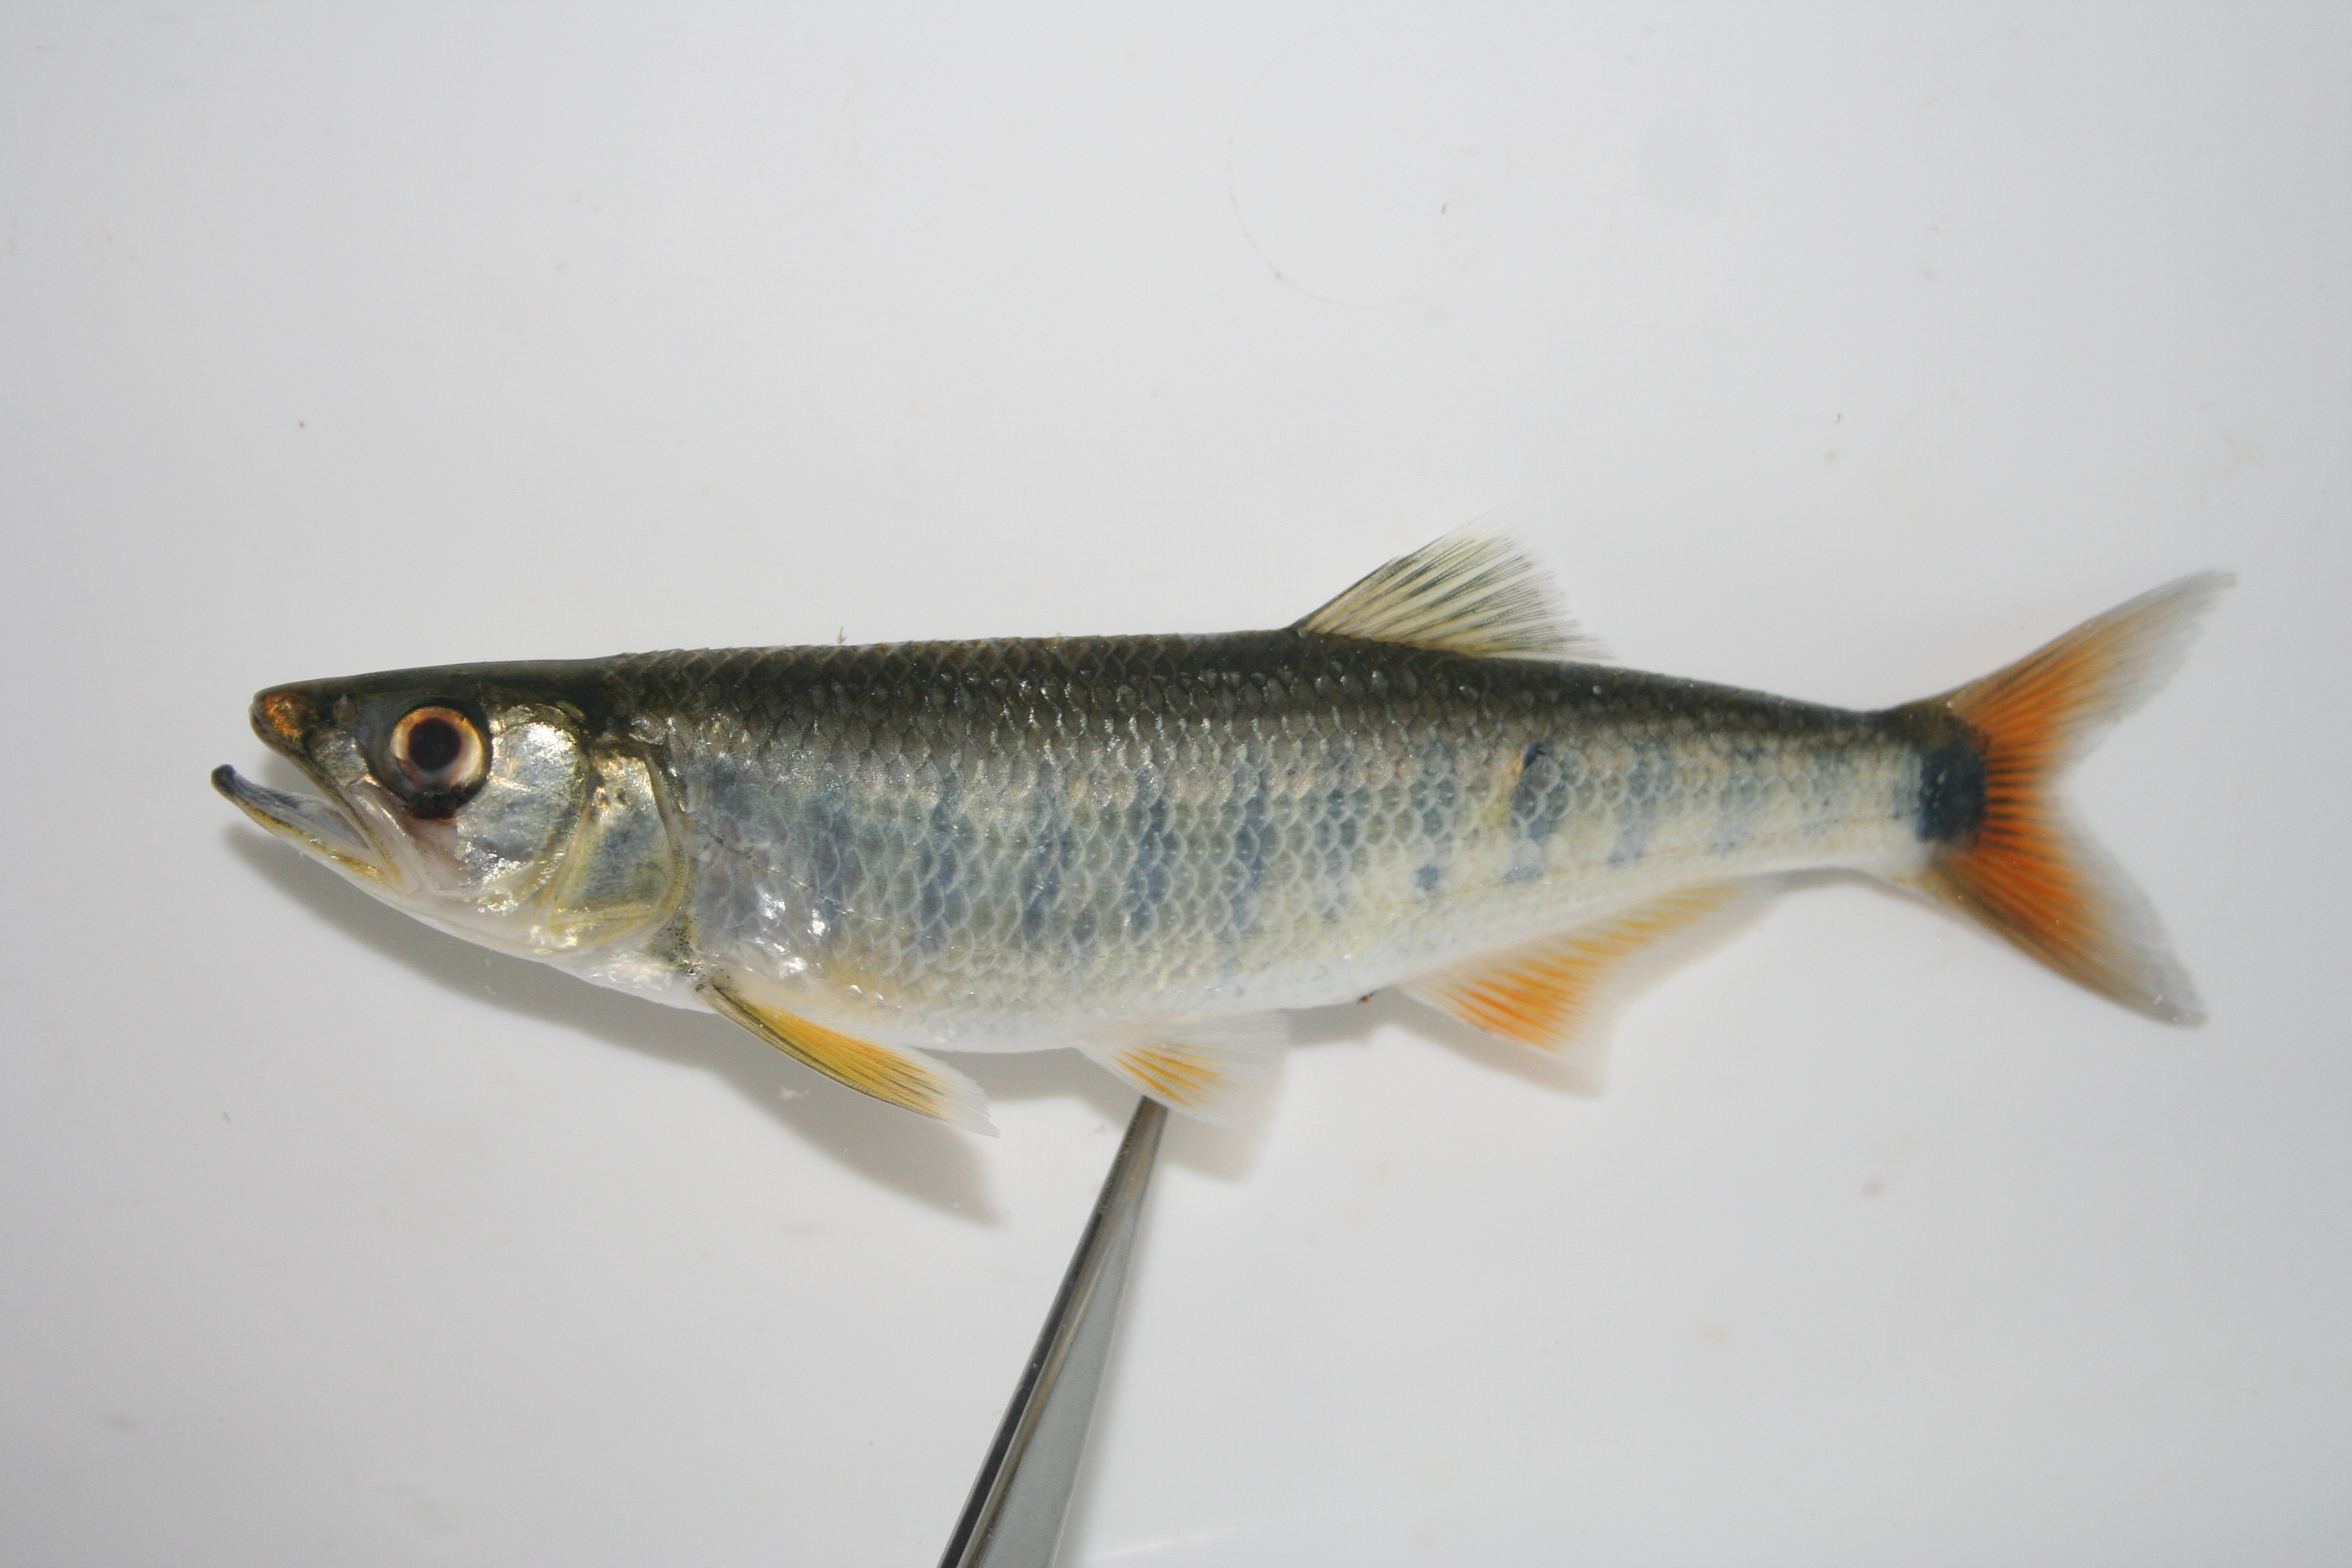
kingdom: Animalia
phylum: Chordata
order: Cypriniformes
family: Cyprinidae
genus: Opsaridium
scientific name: Opsaridium
